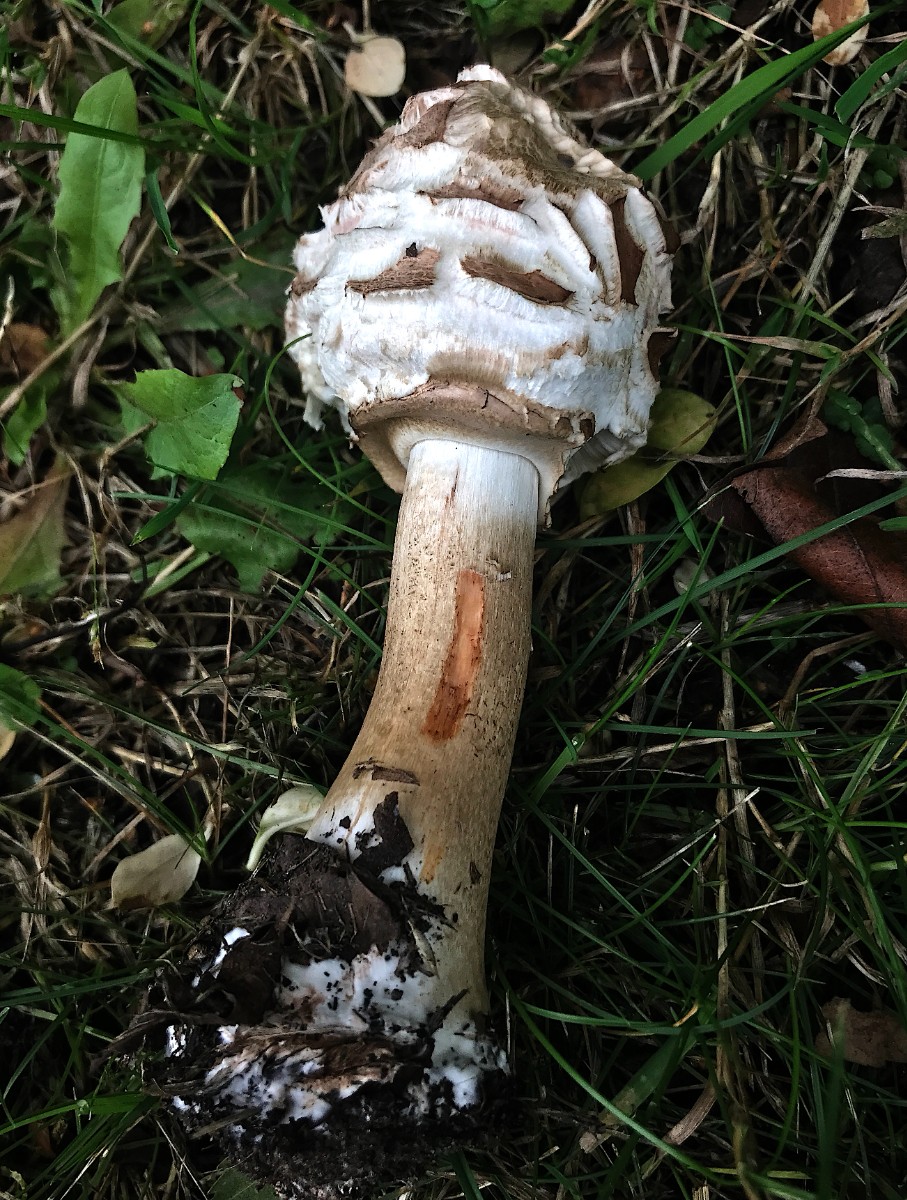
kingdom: Fungi
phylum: Basidiomycota
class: Agaricomycetes
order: Agaricales
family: Agaricaceae
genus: Chlorophyllum
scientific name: Chlorophyllum rhacodes
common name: ægte rabarberhat
